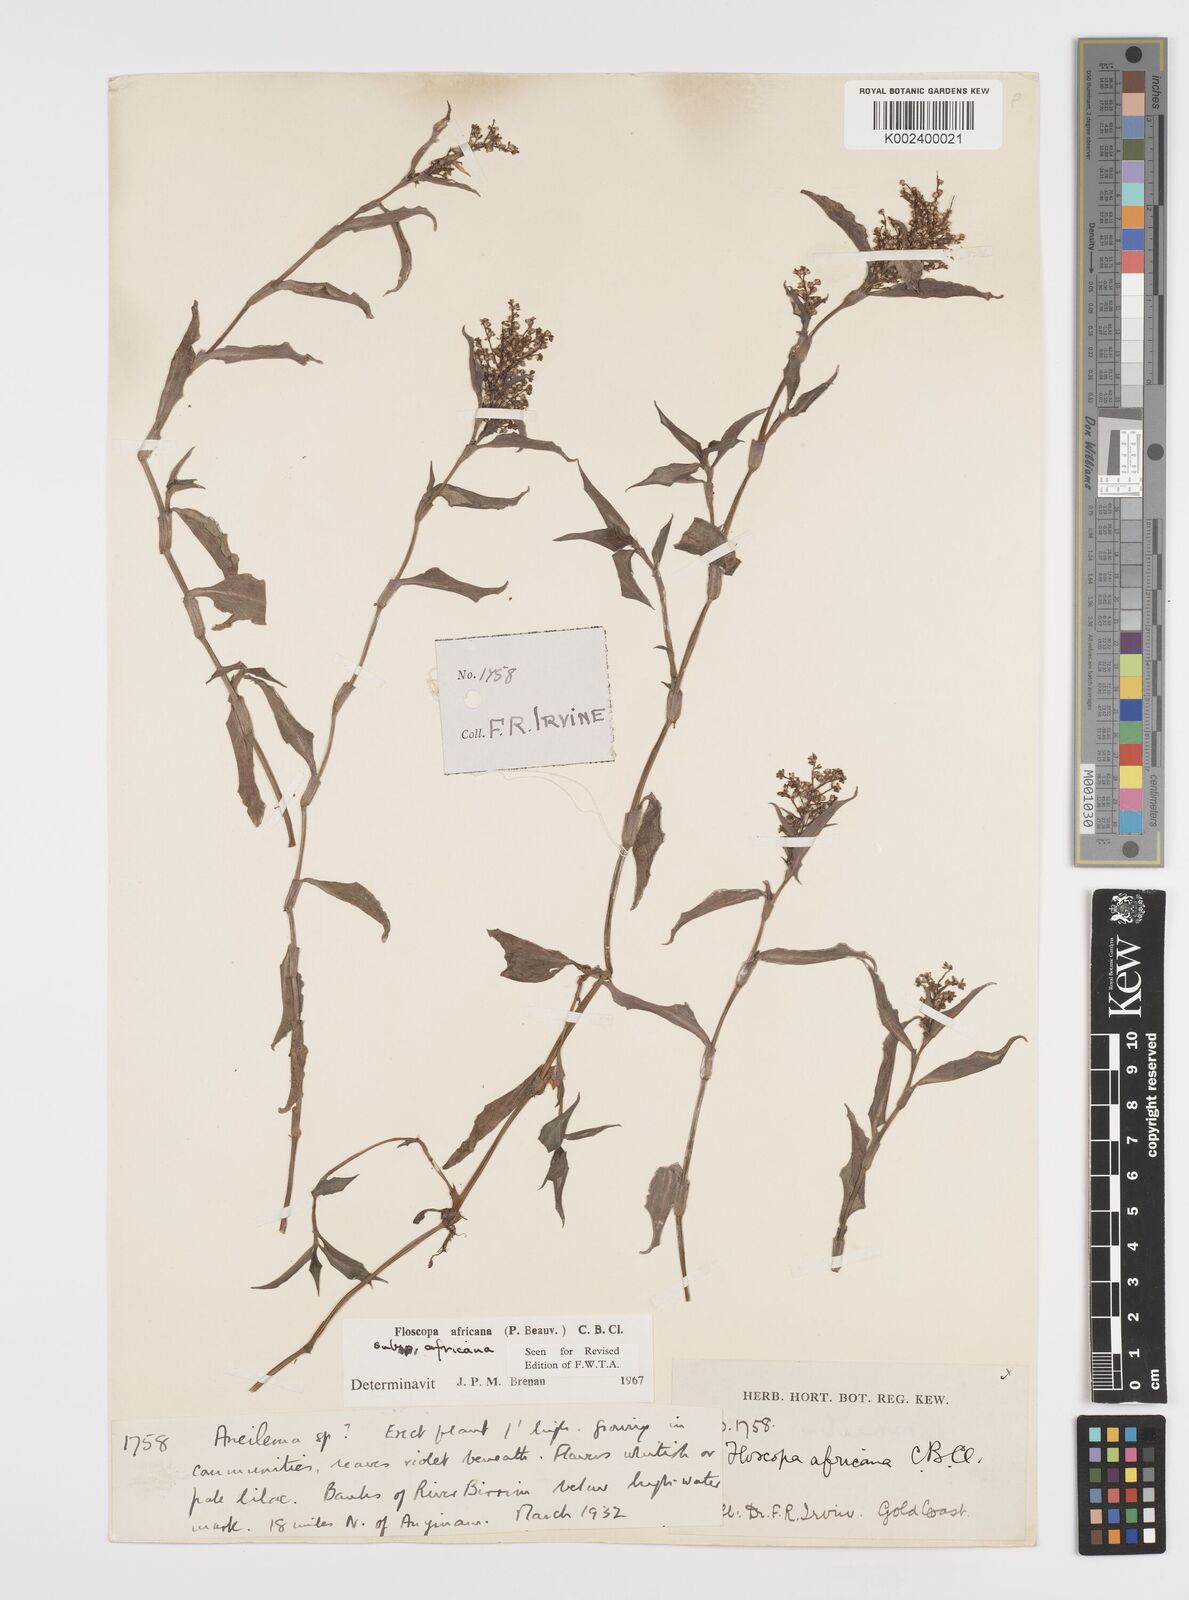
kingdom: Plantae
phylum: Tracheophyta
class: Liliopsida
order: Commelinales
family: Commelinaceae
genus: Floscopa
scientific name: Floscopa africana
